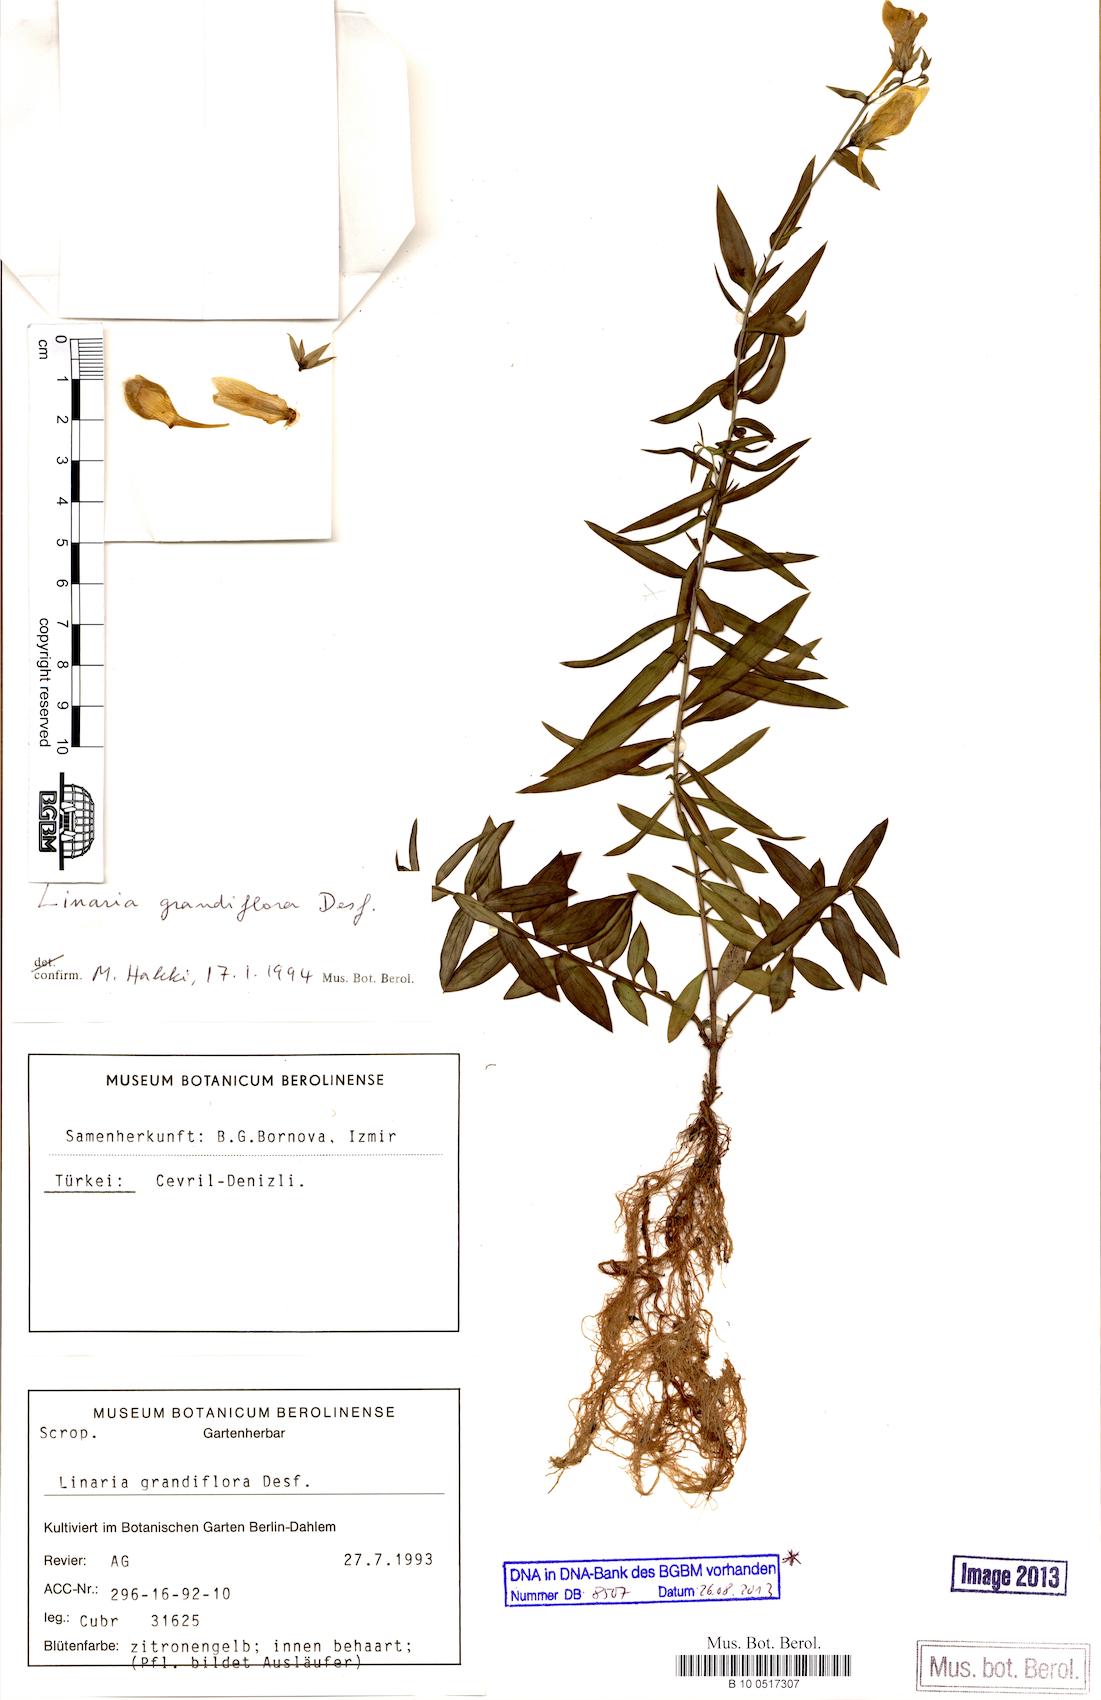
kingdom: Plantae
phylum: Tracheophyta
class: Magnoliopsida
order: Lamiales
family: Plantaginaceae
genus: Linaria
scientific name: Linaria grandiflora
